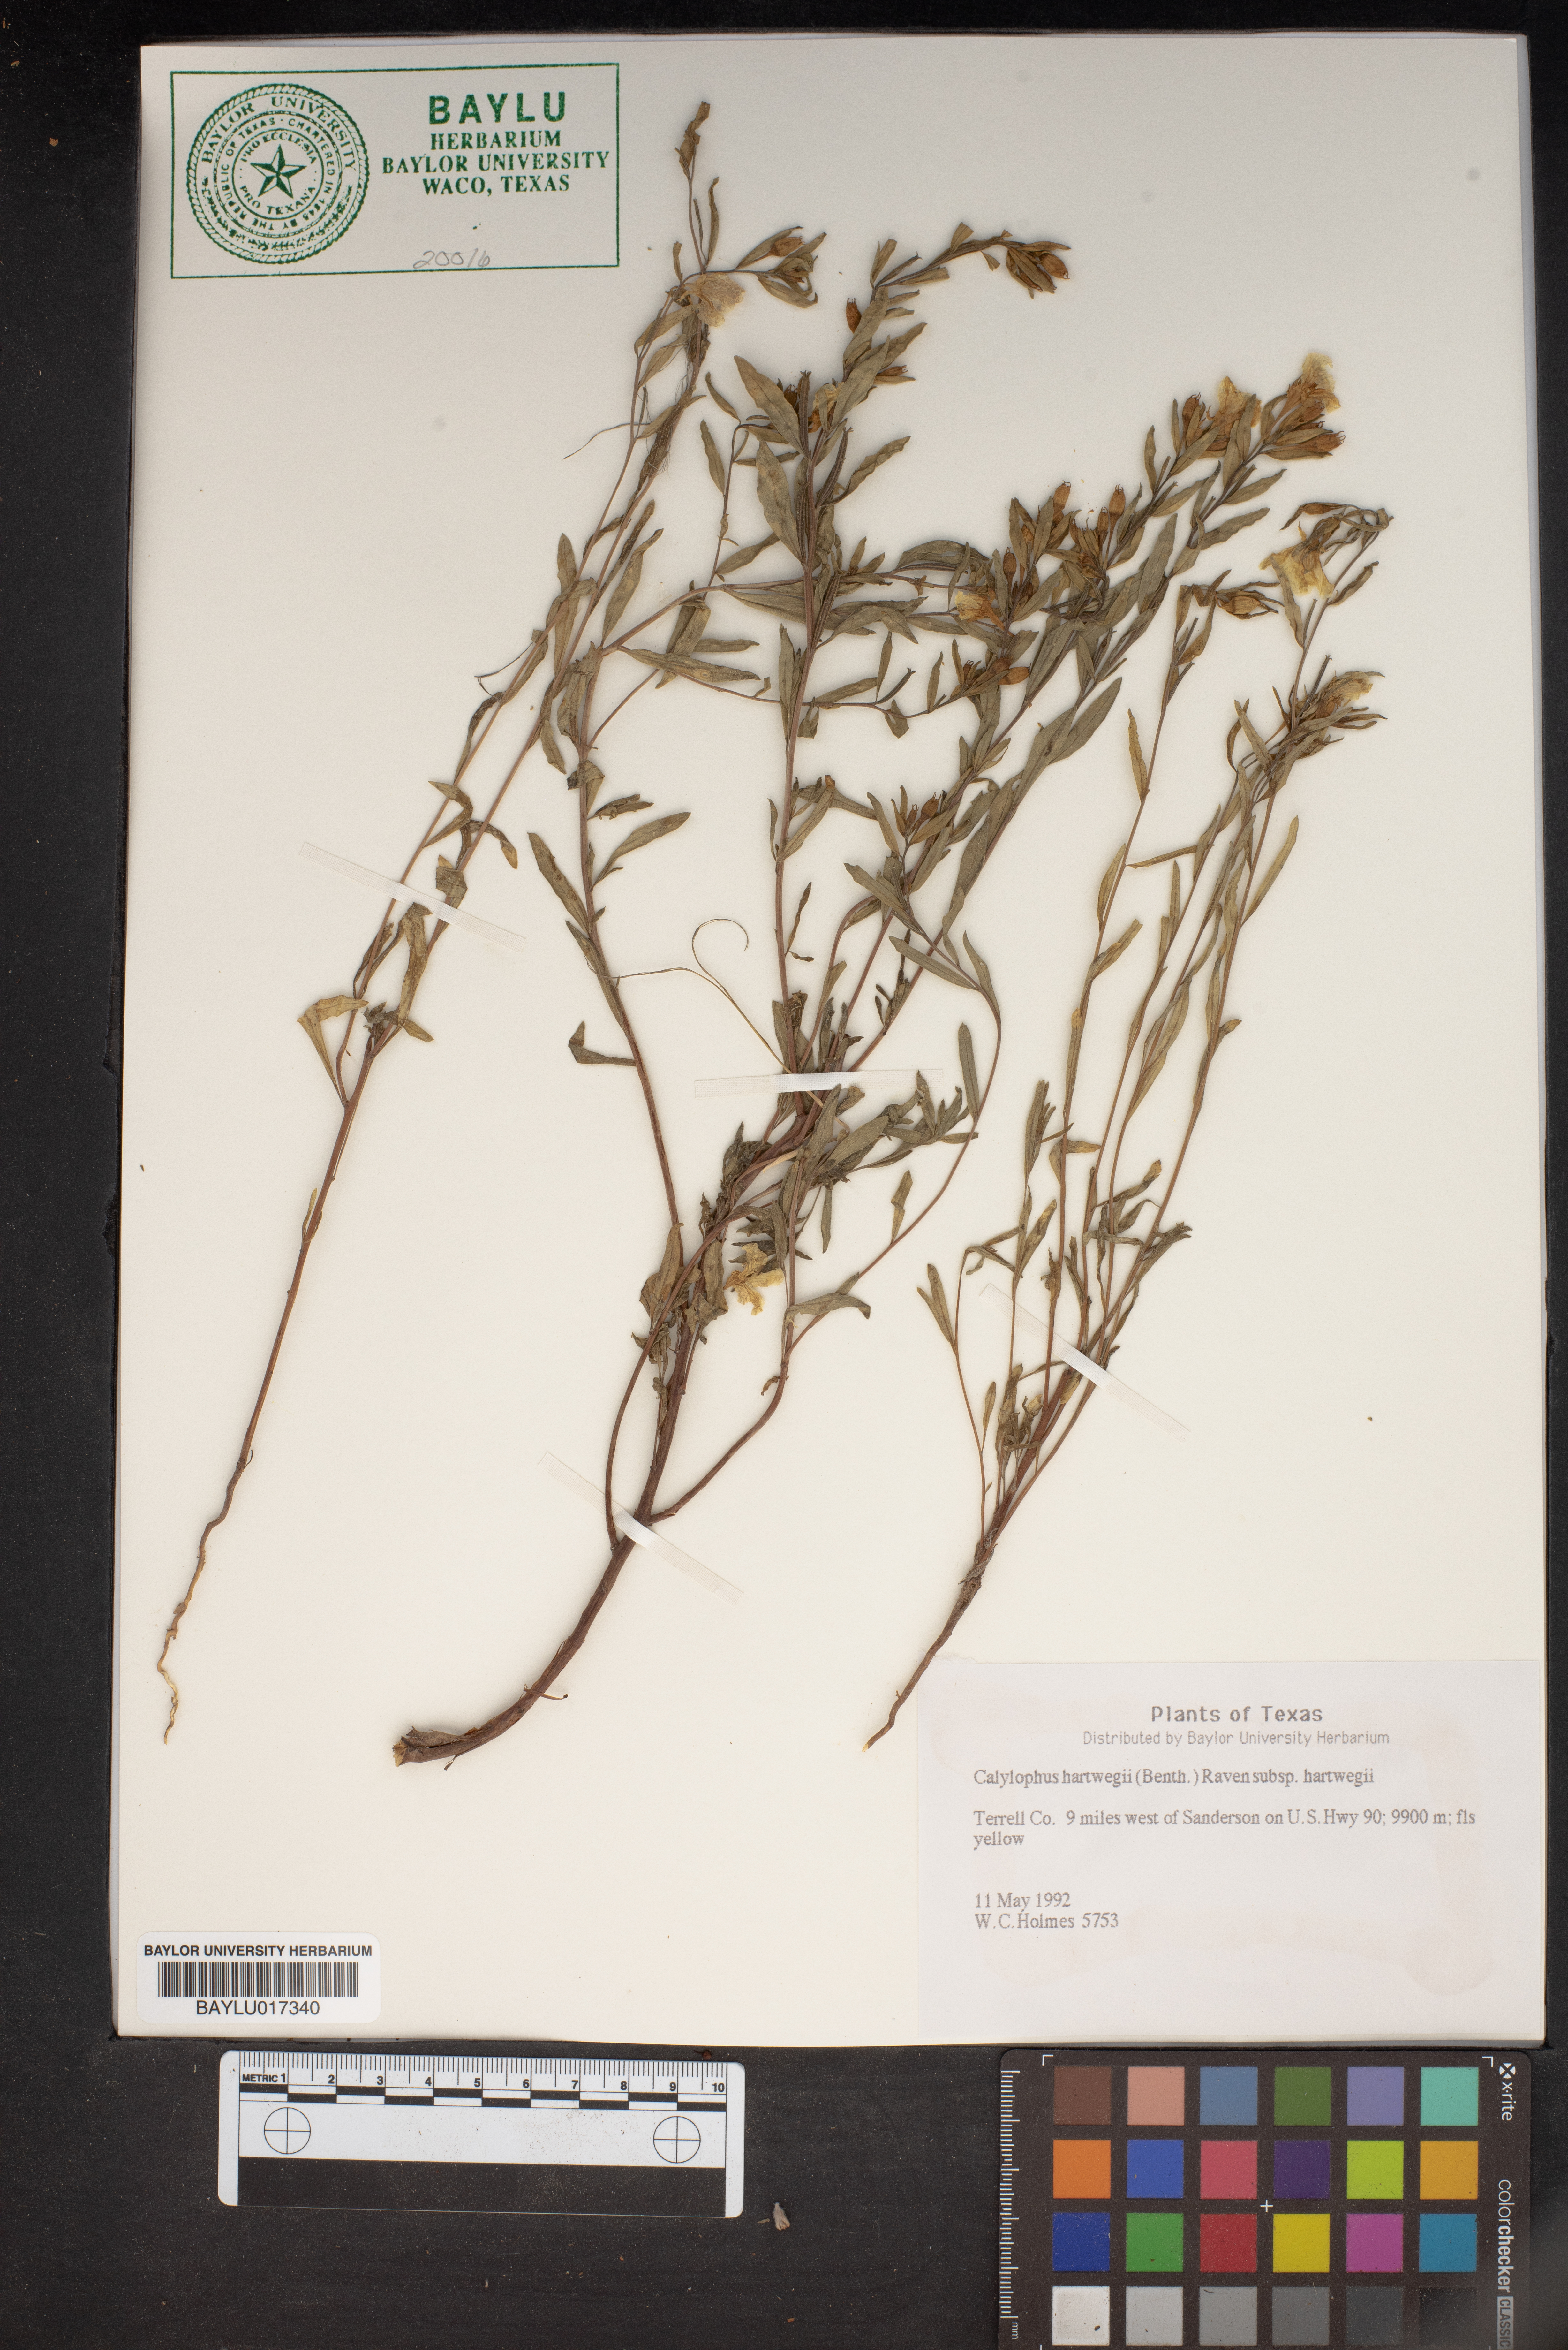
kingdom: Plantae
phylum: Tracheophyta
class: Magnoliopsida
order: Myrtales
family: Onagraceae
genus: Oenothera
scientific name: Oenothera hartwegii
